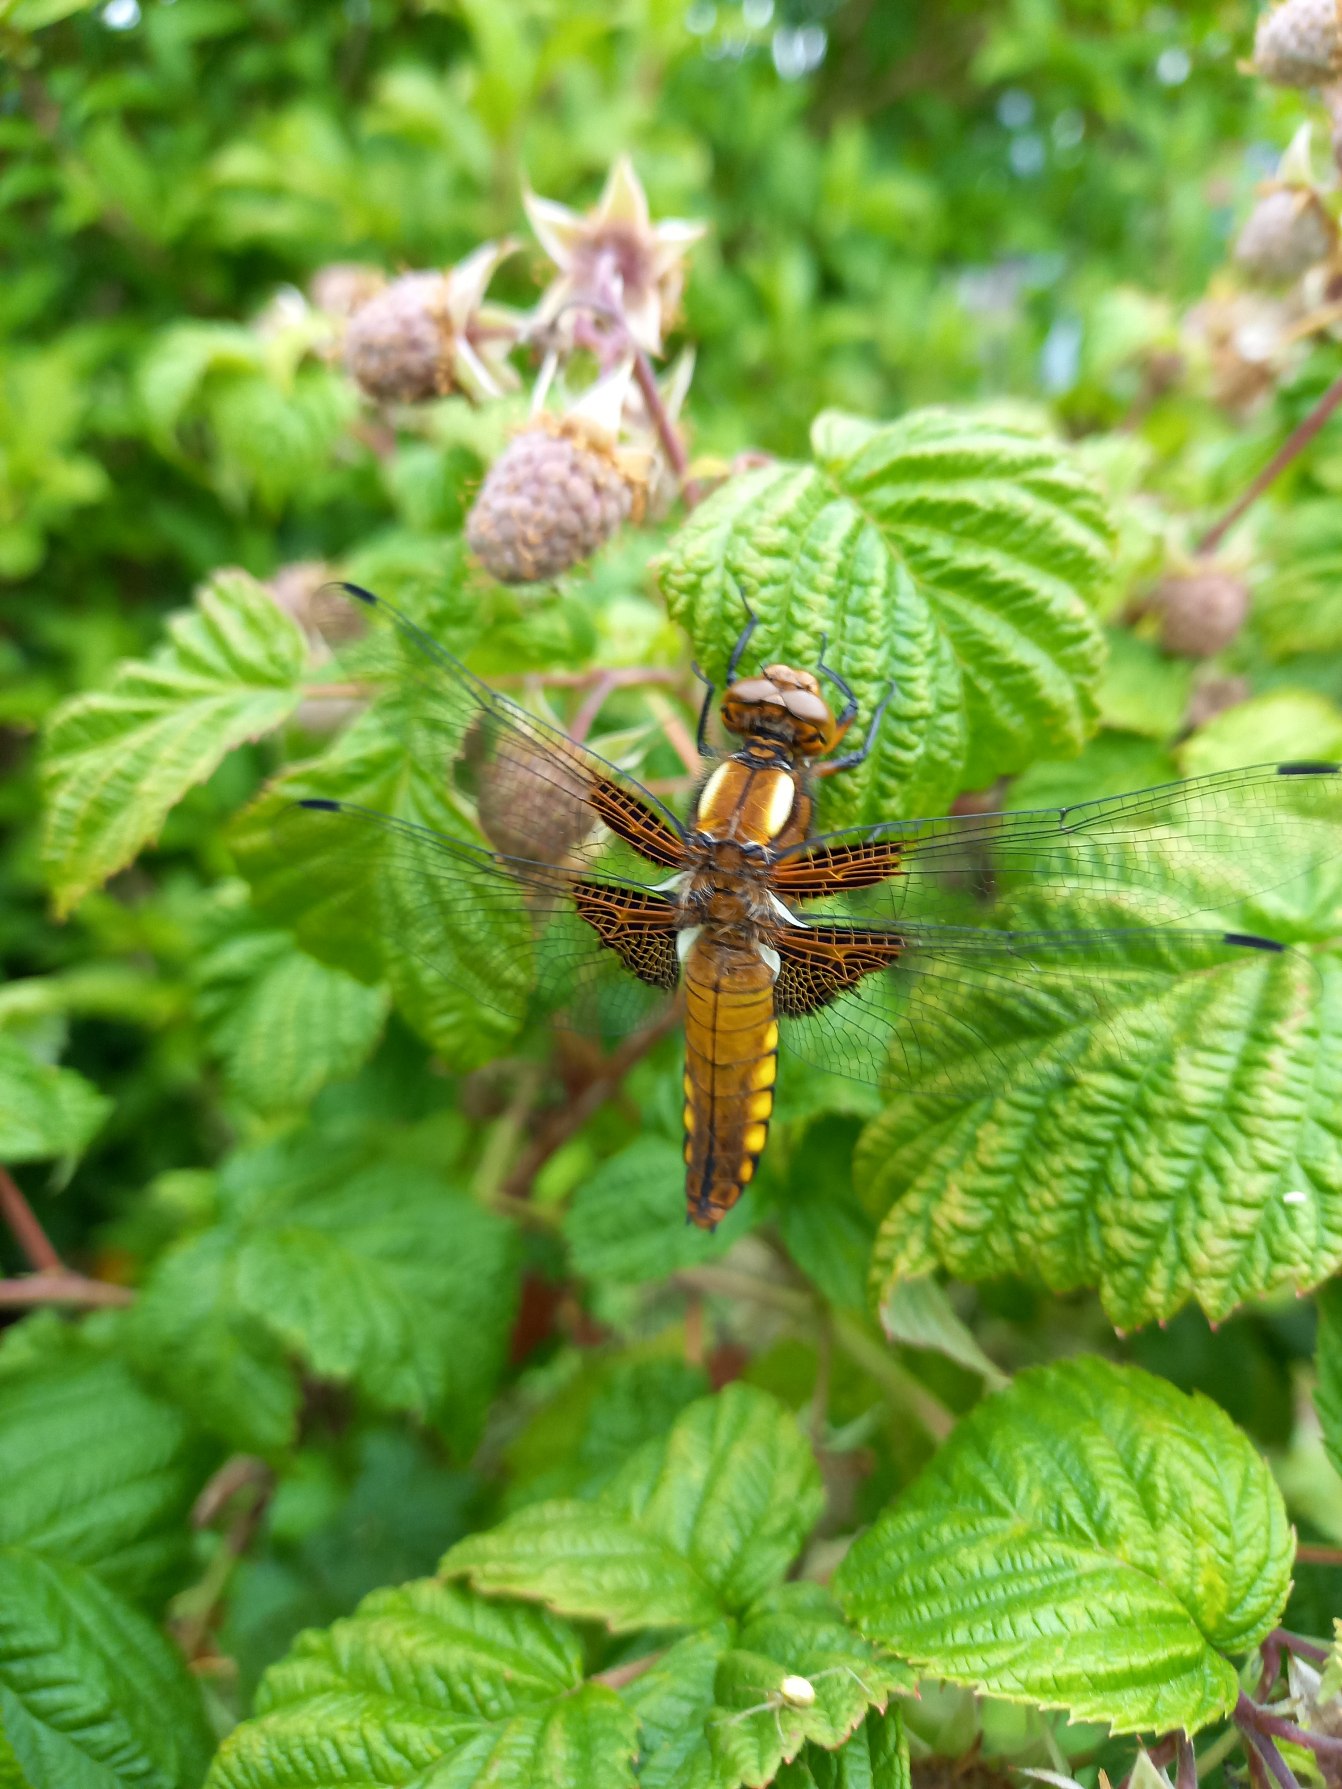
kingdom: Animalia
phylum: Arthropoda
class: Insecta
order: Odonata
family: Libellulidae
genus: Libellula
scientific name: Libellula depressa
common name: Blå libel
